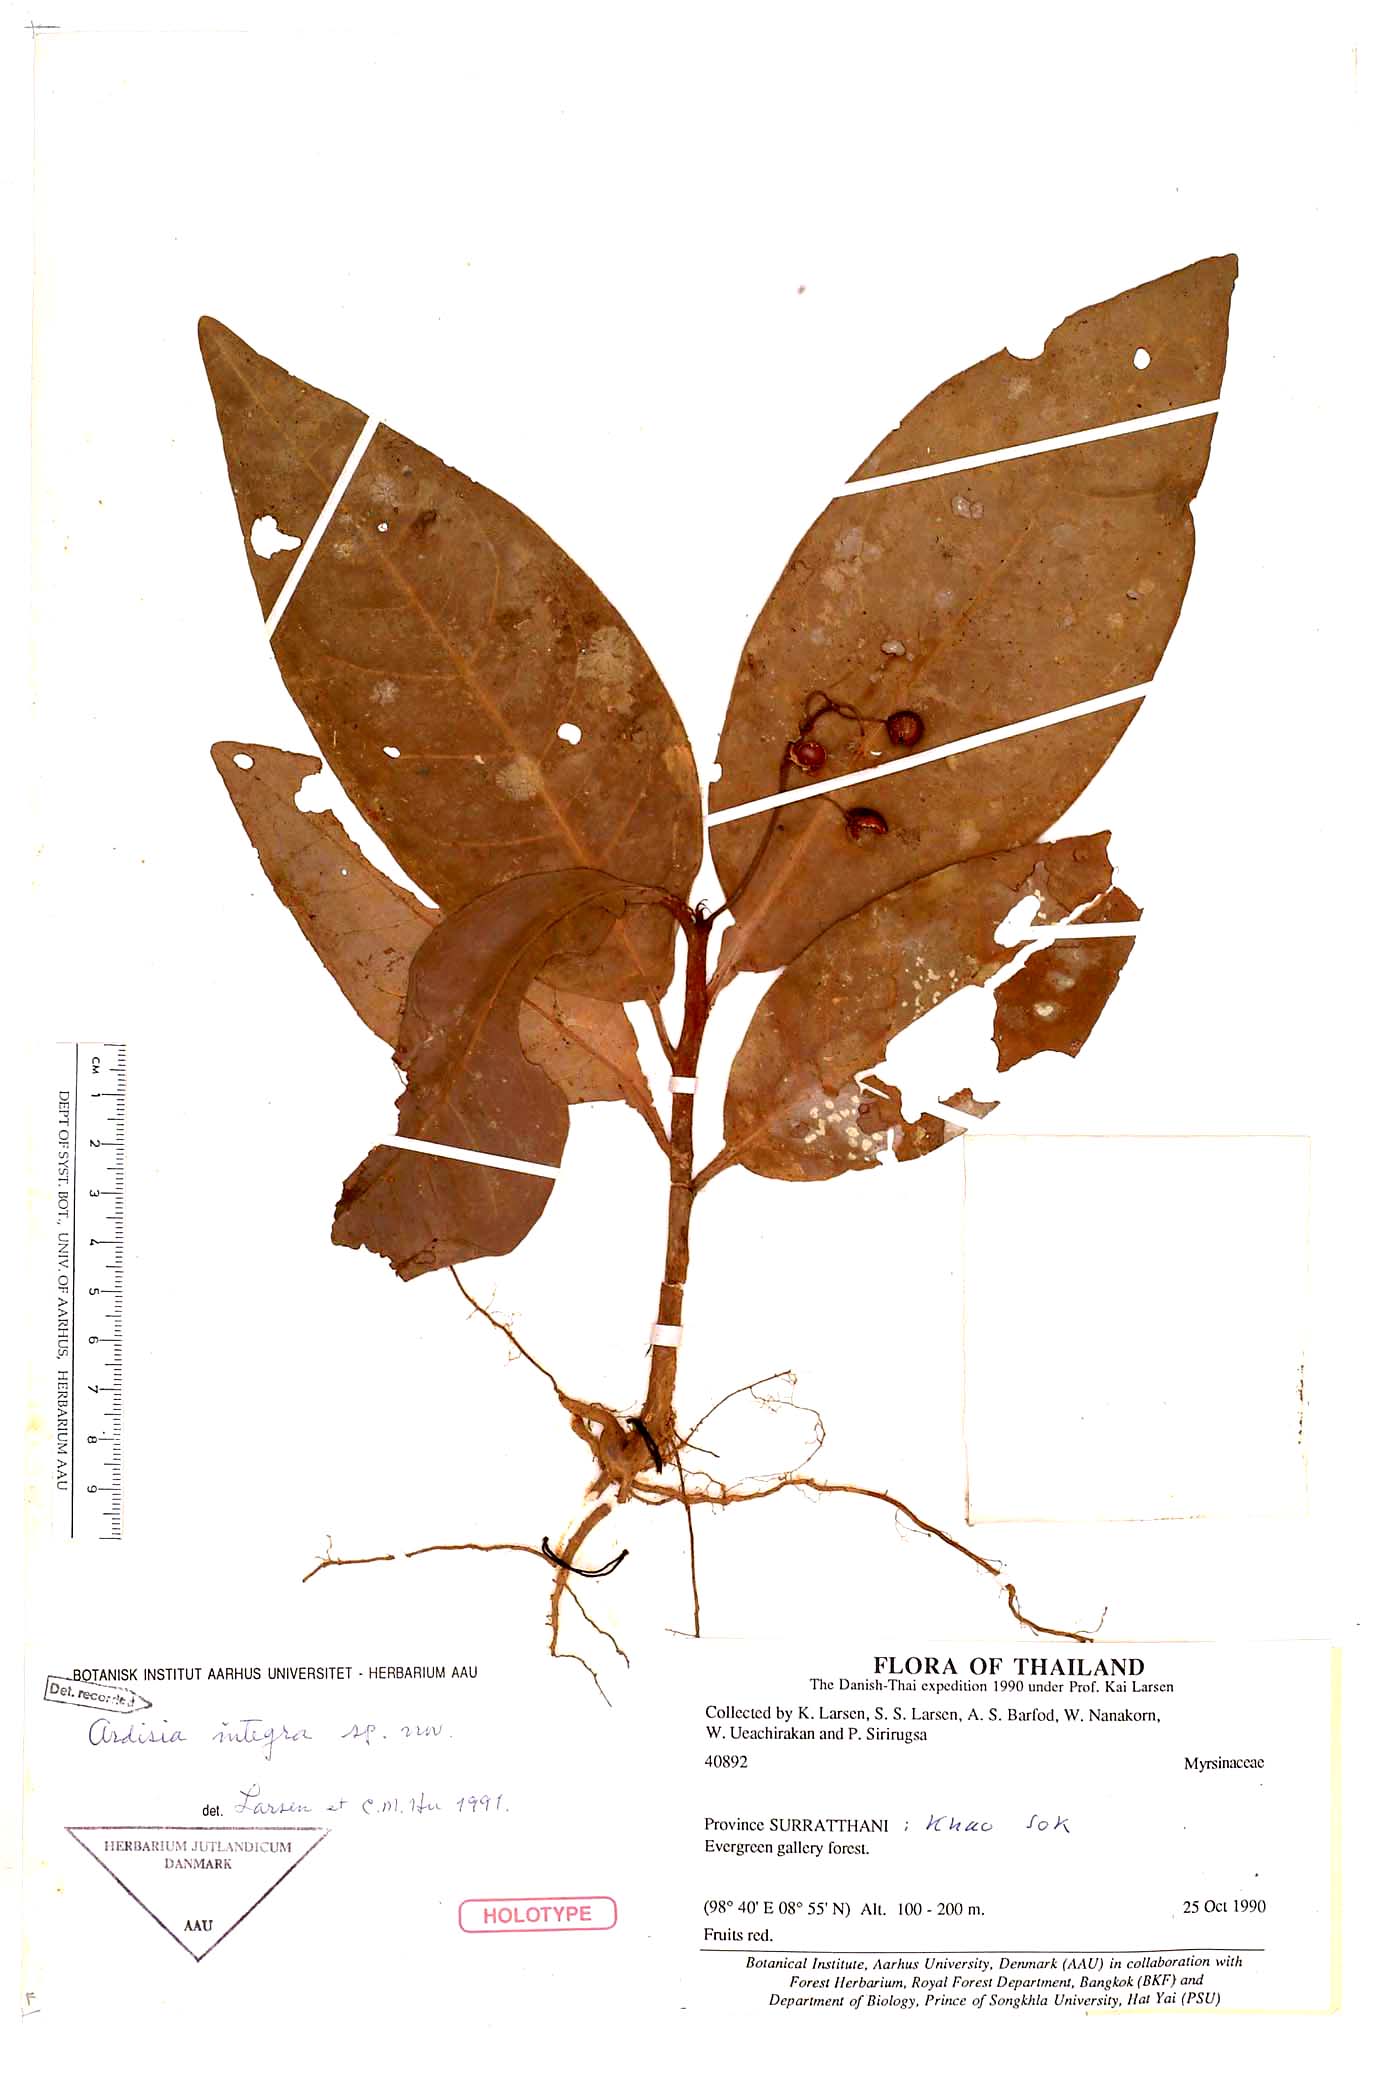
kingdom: Plantae
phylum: Tracheophyta
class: Magnoliopsida
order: Ericales
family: Primulaceae
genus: Ardisia
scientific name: Ardisia integra
